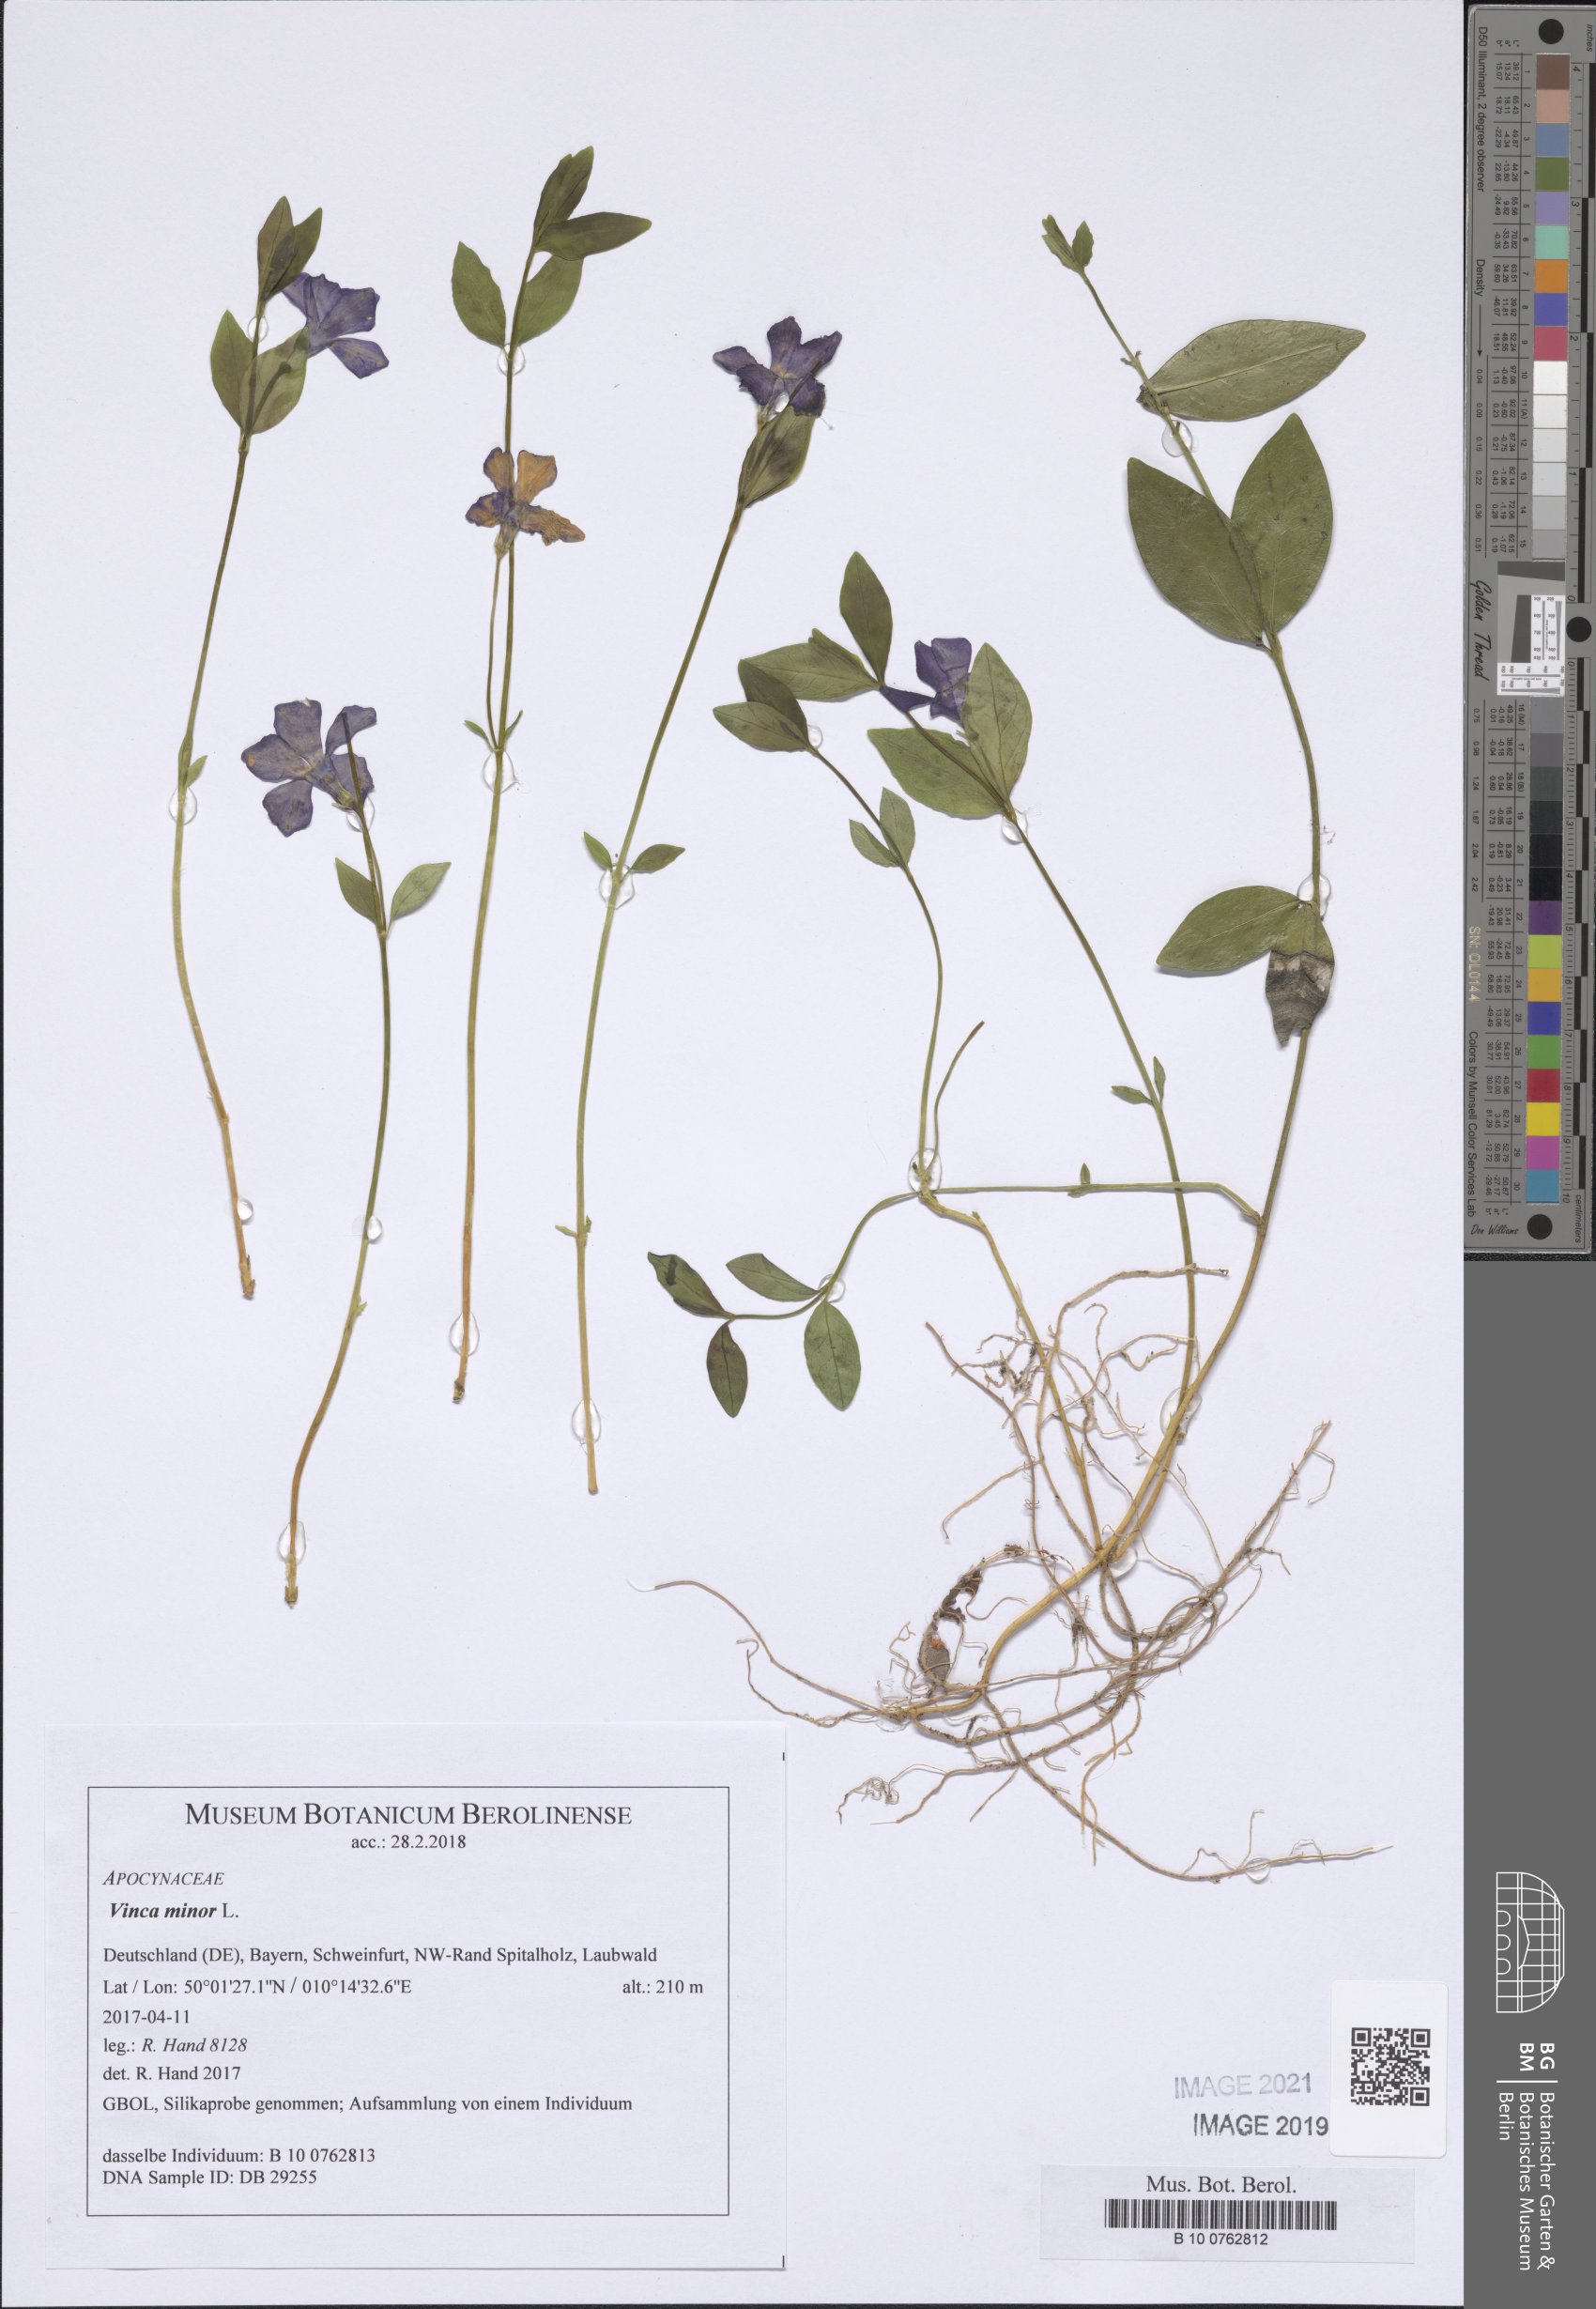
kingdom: Plantae
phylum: Tracheophyta
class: Magnoliopsida
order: Gentianales
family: Apocynaceae
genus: Vinca
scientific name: Vinca minor
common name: Lesser periwinkle
